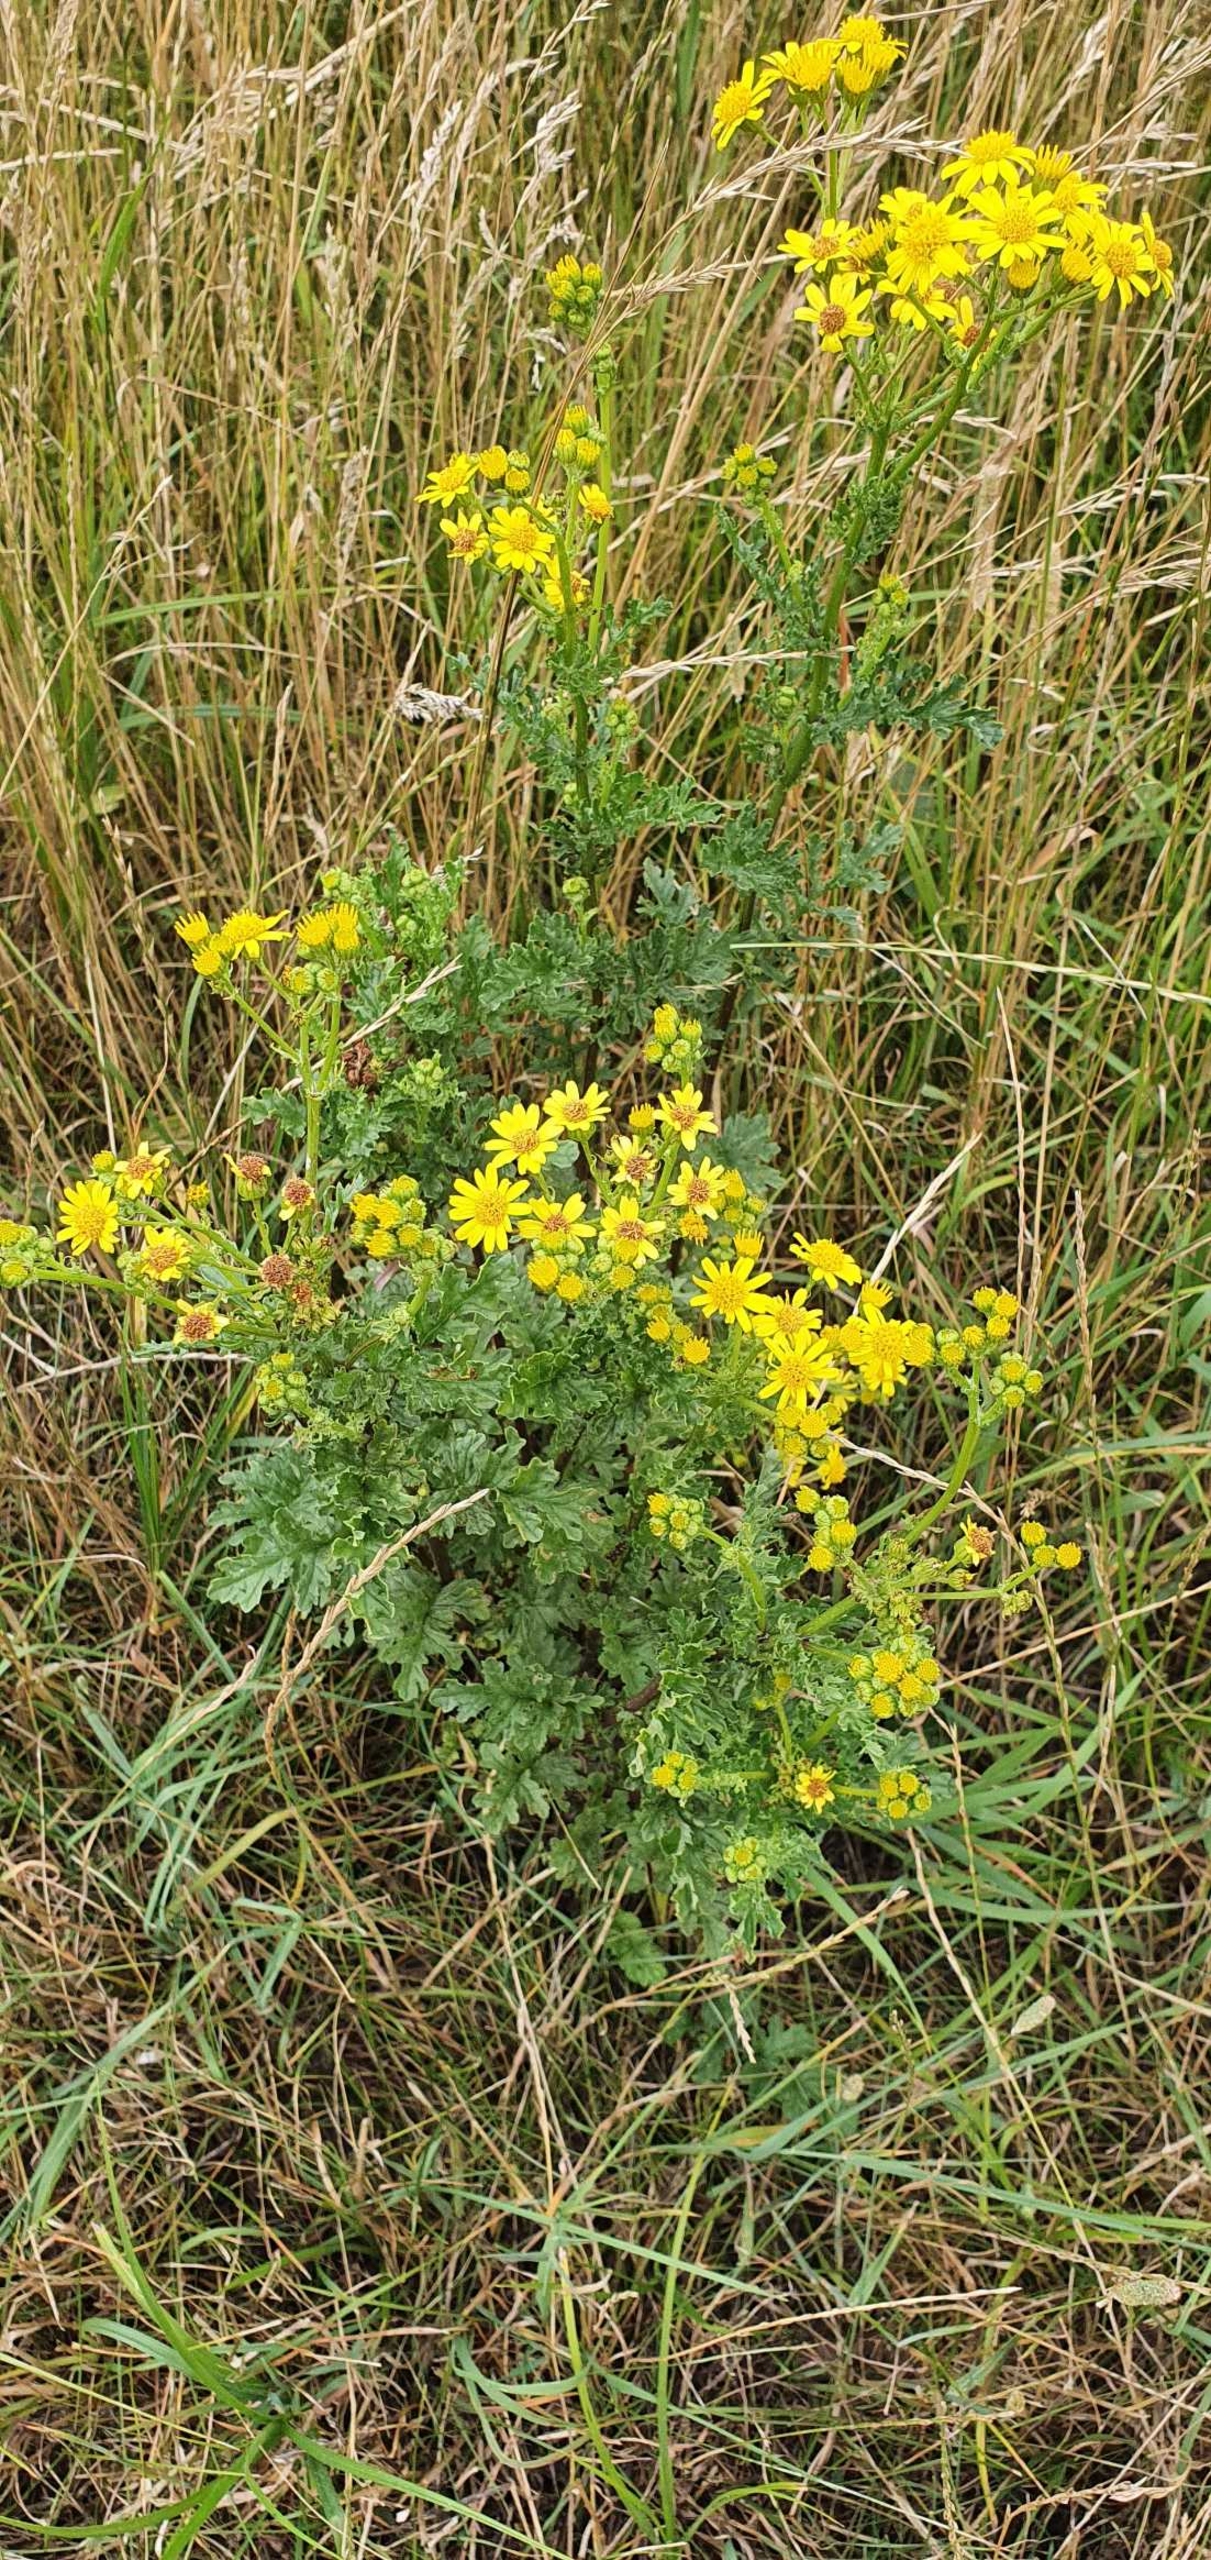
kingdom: Plantae
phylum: Tracheophyta
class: Magnoliopsida
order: Asterales
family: Asteraceae
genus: Jacobaea
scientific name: Jacobaea vulgaris
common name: Eng-brandbæger
